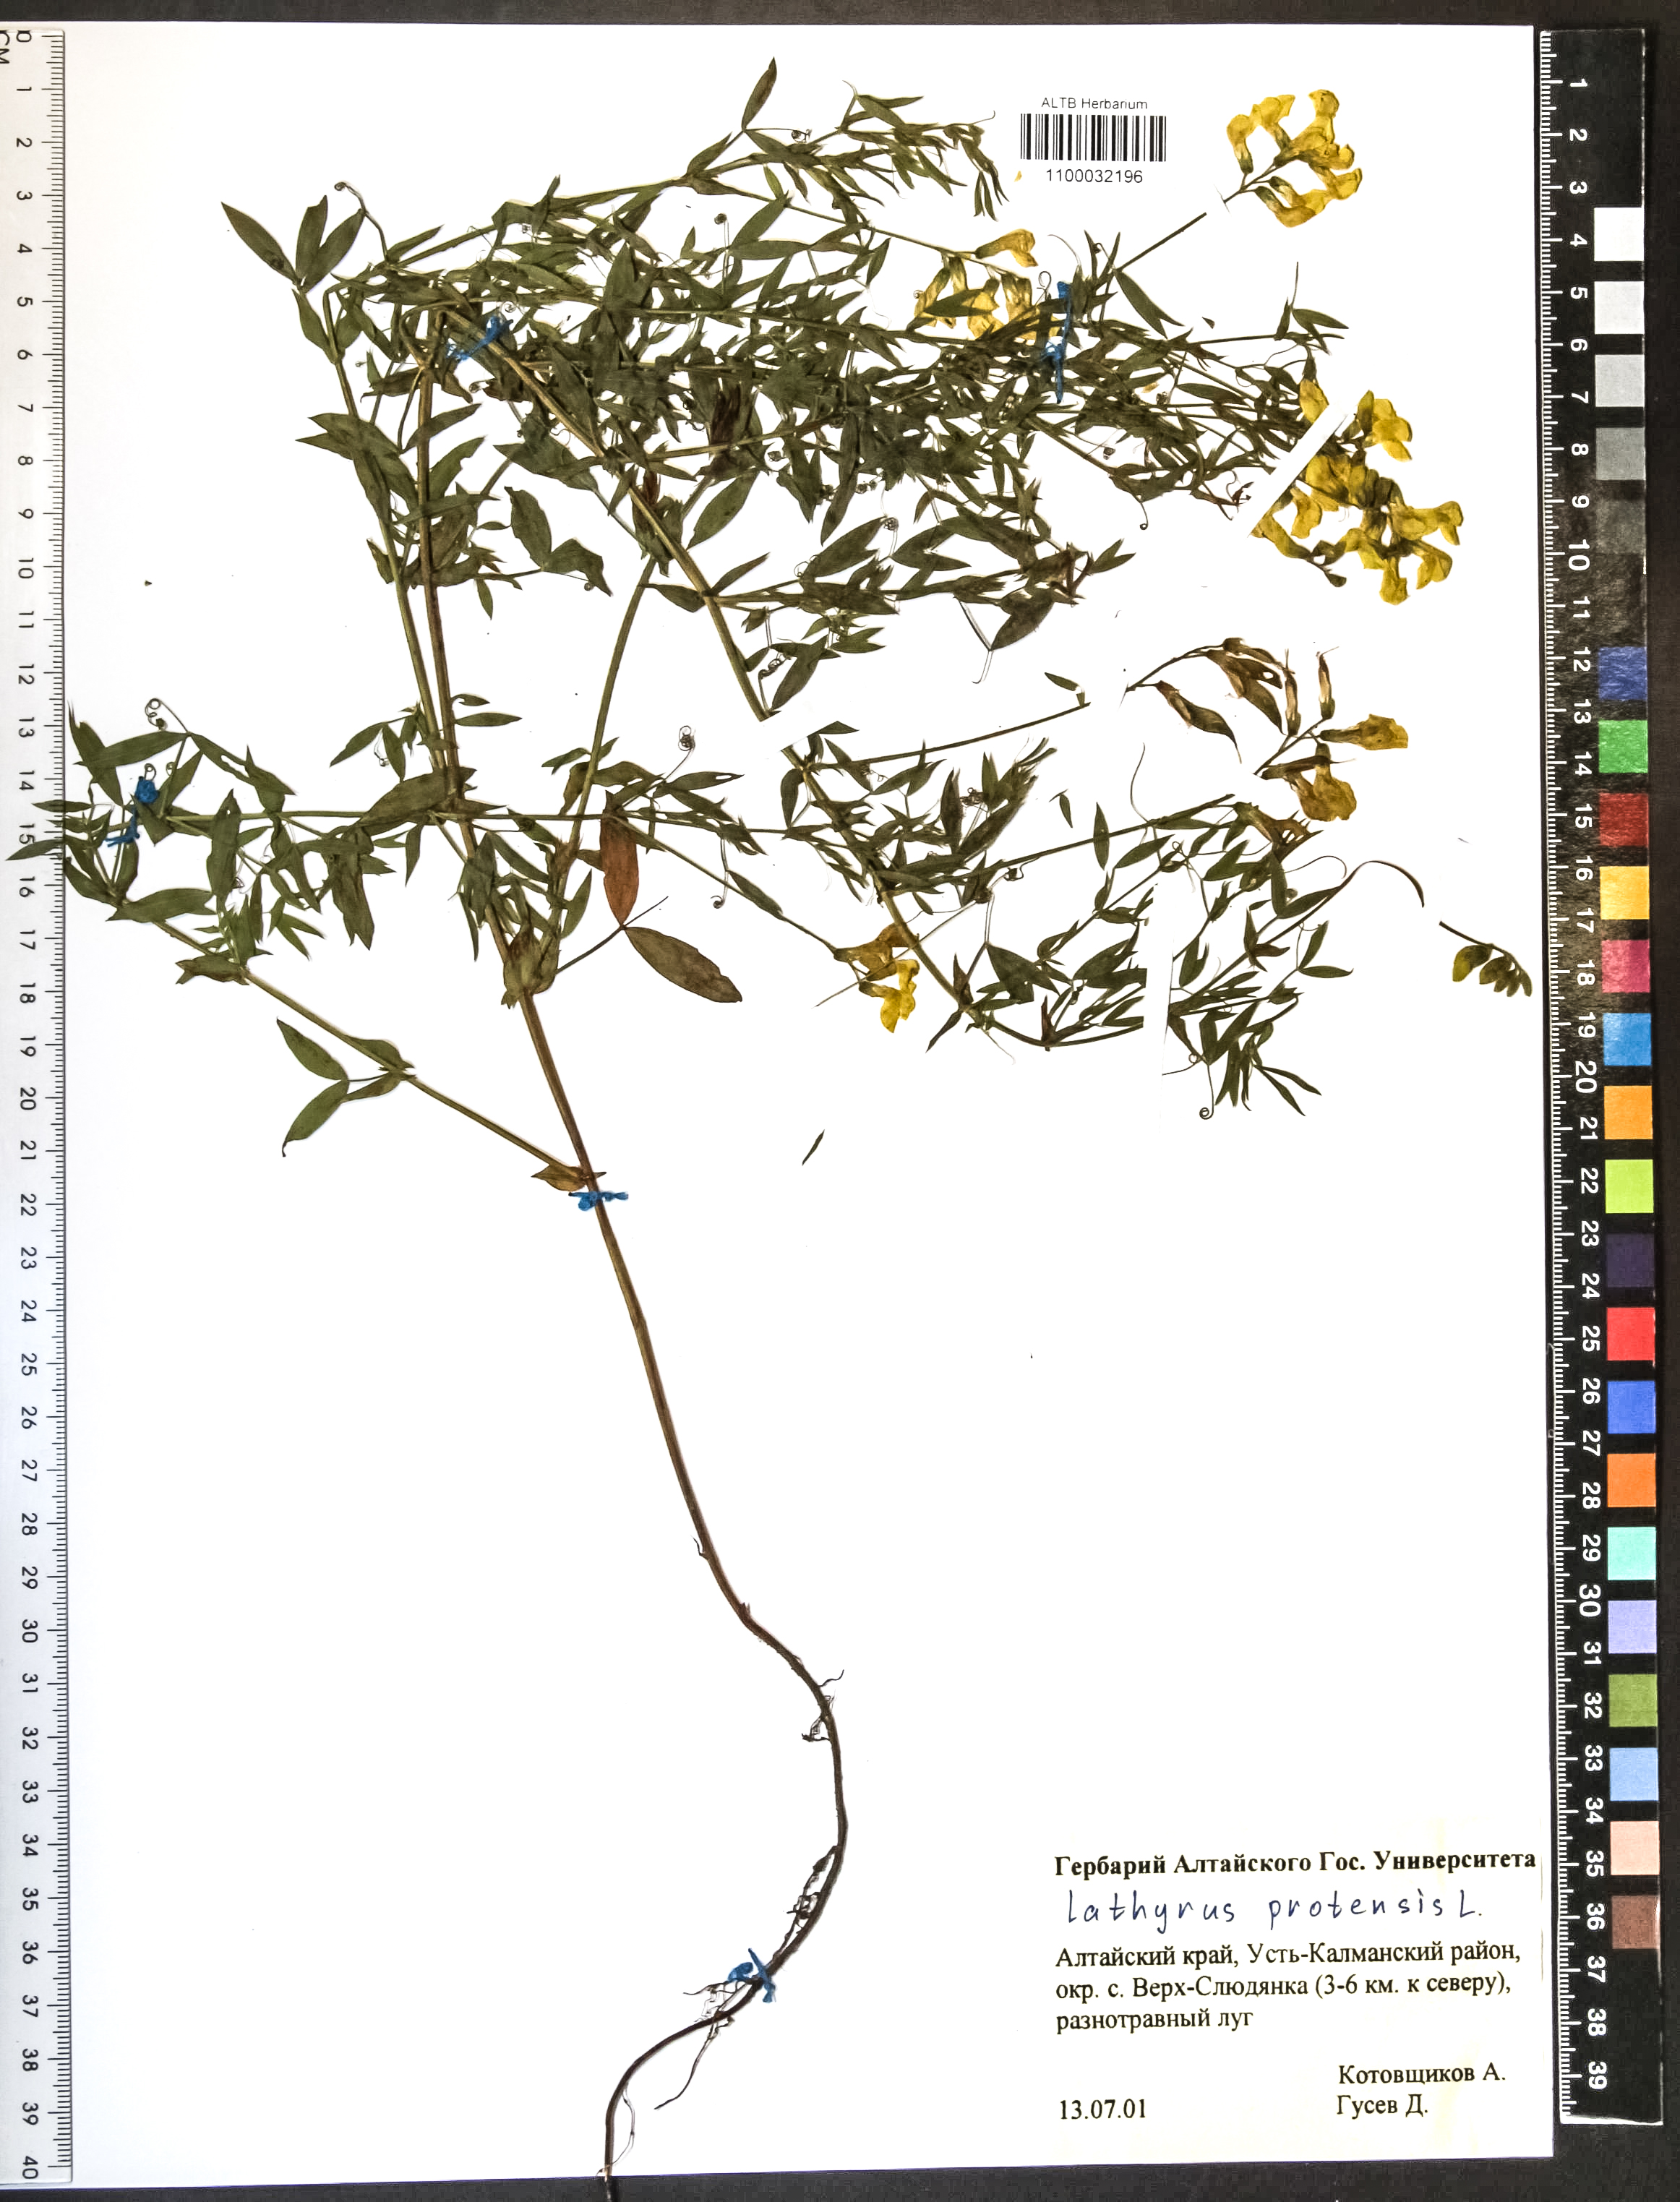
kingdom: Plantae
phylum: Tracheophyta
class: Magnoliopsida
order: Fabales
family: Fabaceae
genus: Lathyrus
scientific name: Lathyrus pratensis
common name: Meadow vetchling
